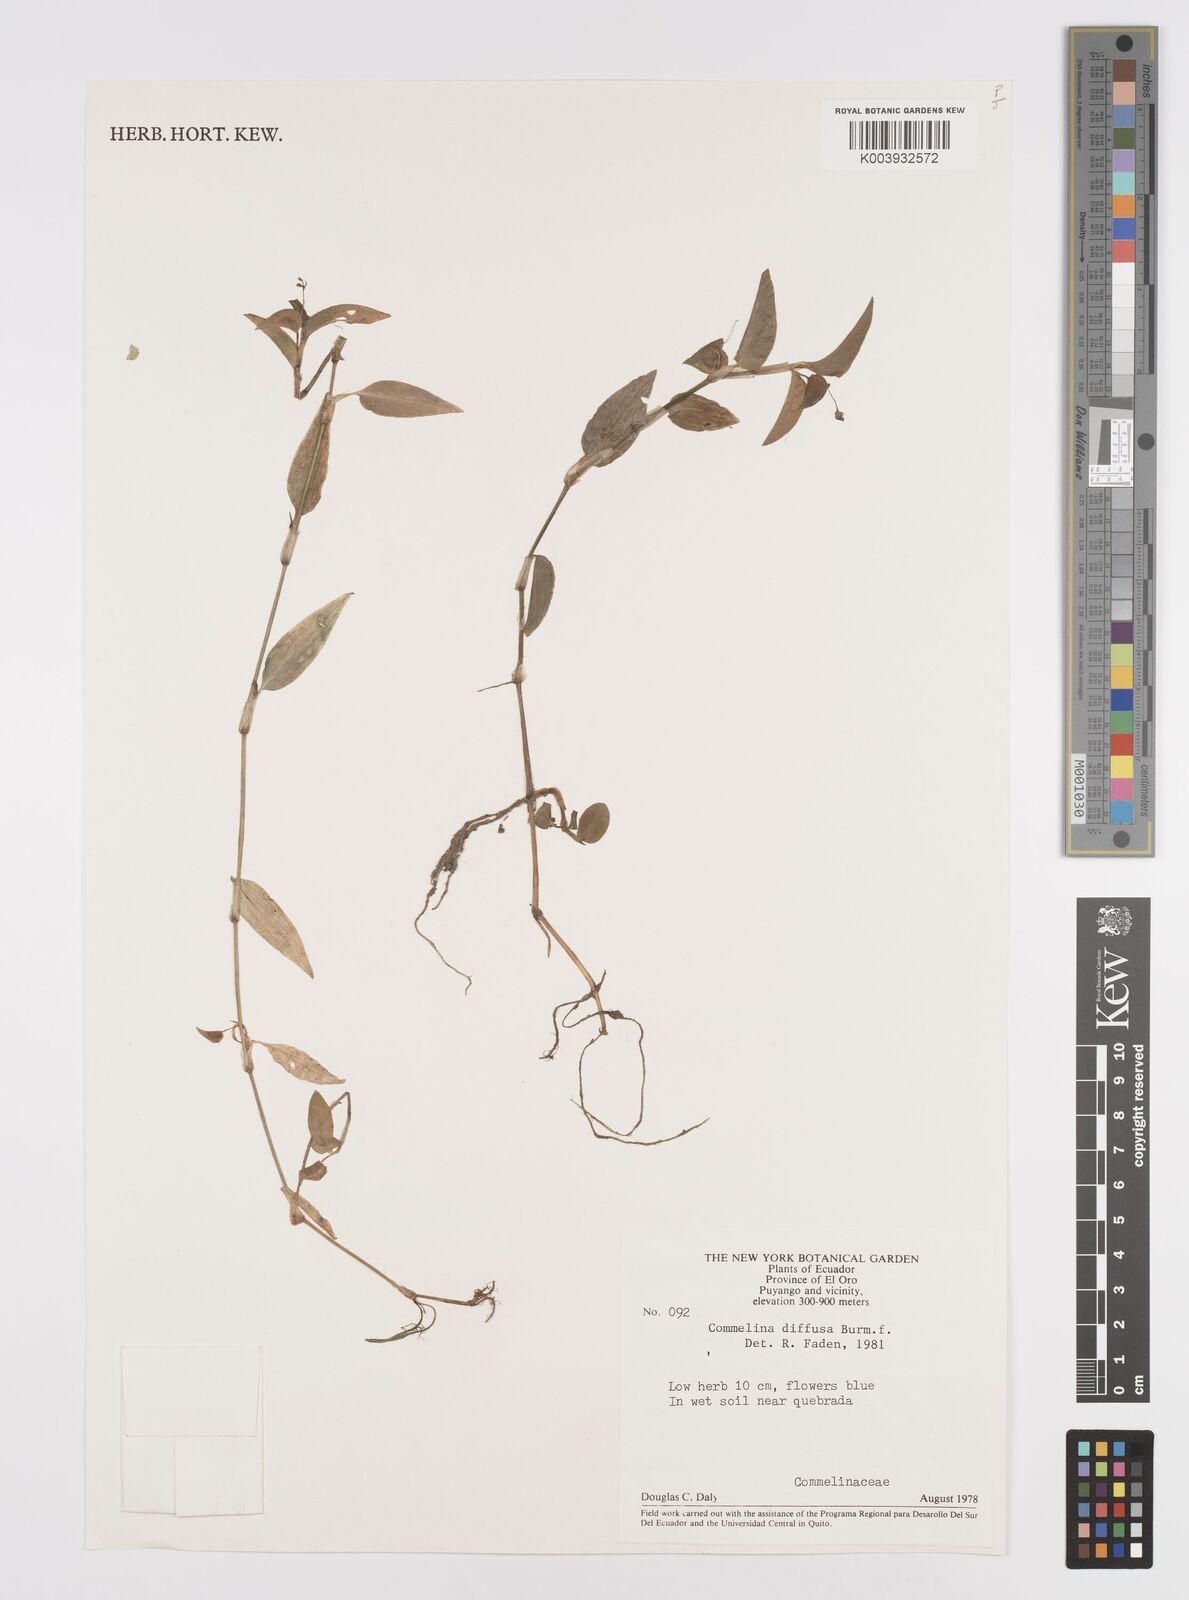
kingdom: Plantae
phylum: Tracheophyta
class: Liliopsida
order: Commelinales
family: Commelinaceae
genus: Commelina
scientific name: Commelina diffusa
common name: Climbing dayflower
